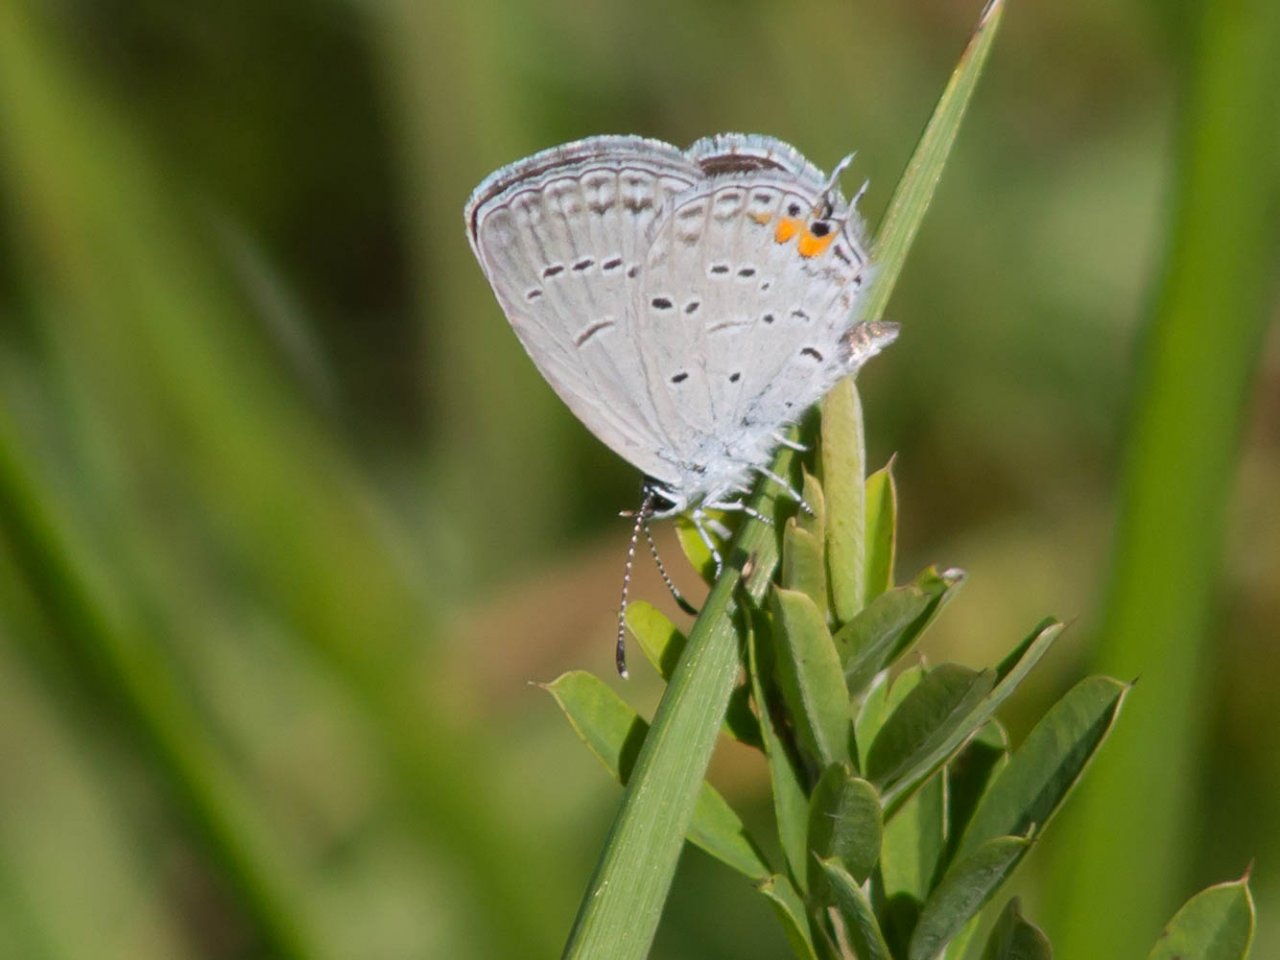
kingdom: Animalia
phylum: Arthropoda
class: Insecta
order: Lepidoptera
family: Lycaenidae
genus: Elkalyce
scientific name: Elkalyce comyntas
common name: Eastern Tailed-Blue
